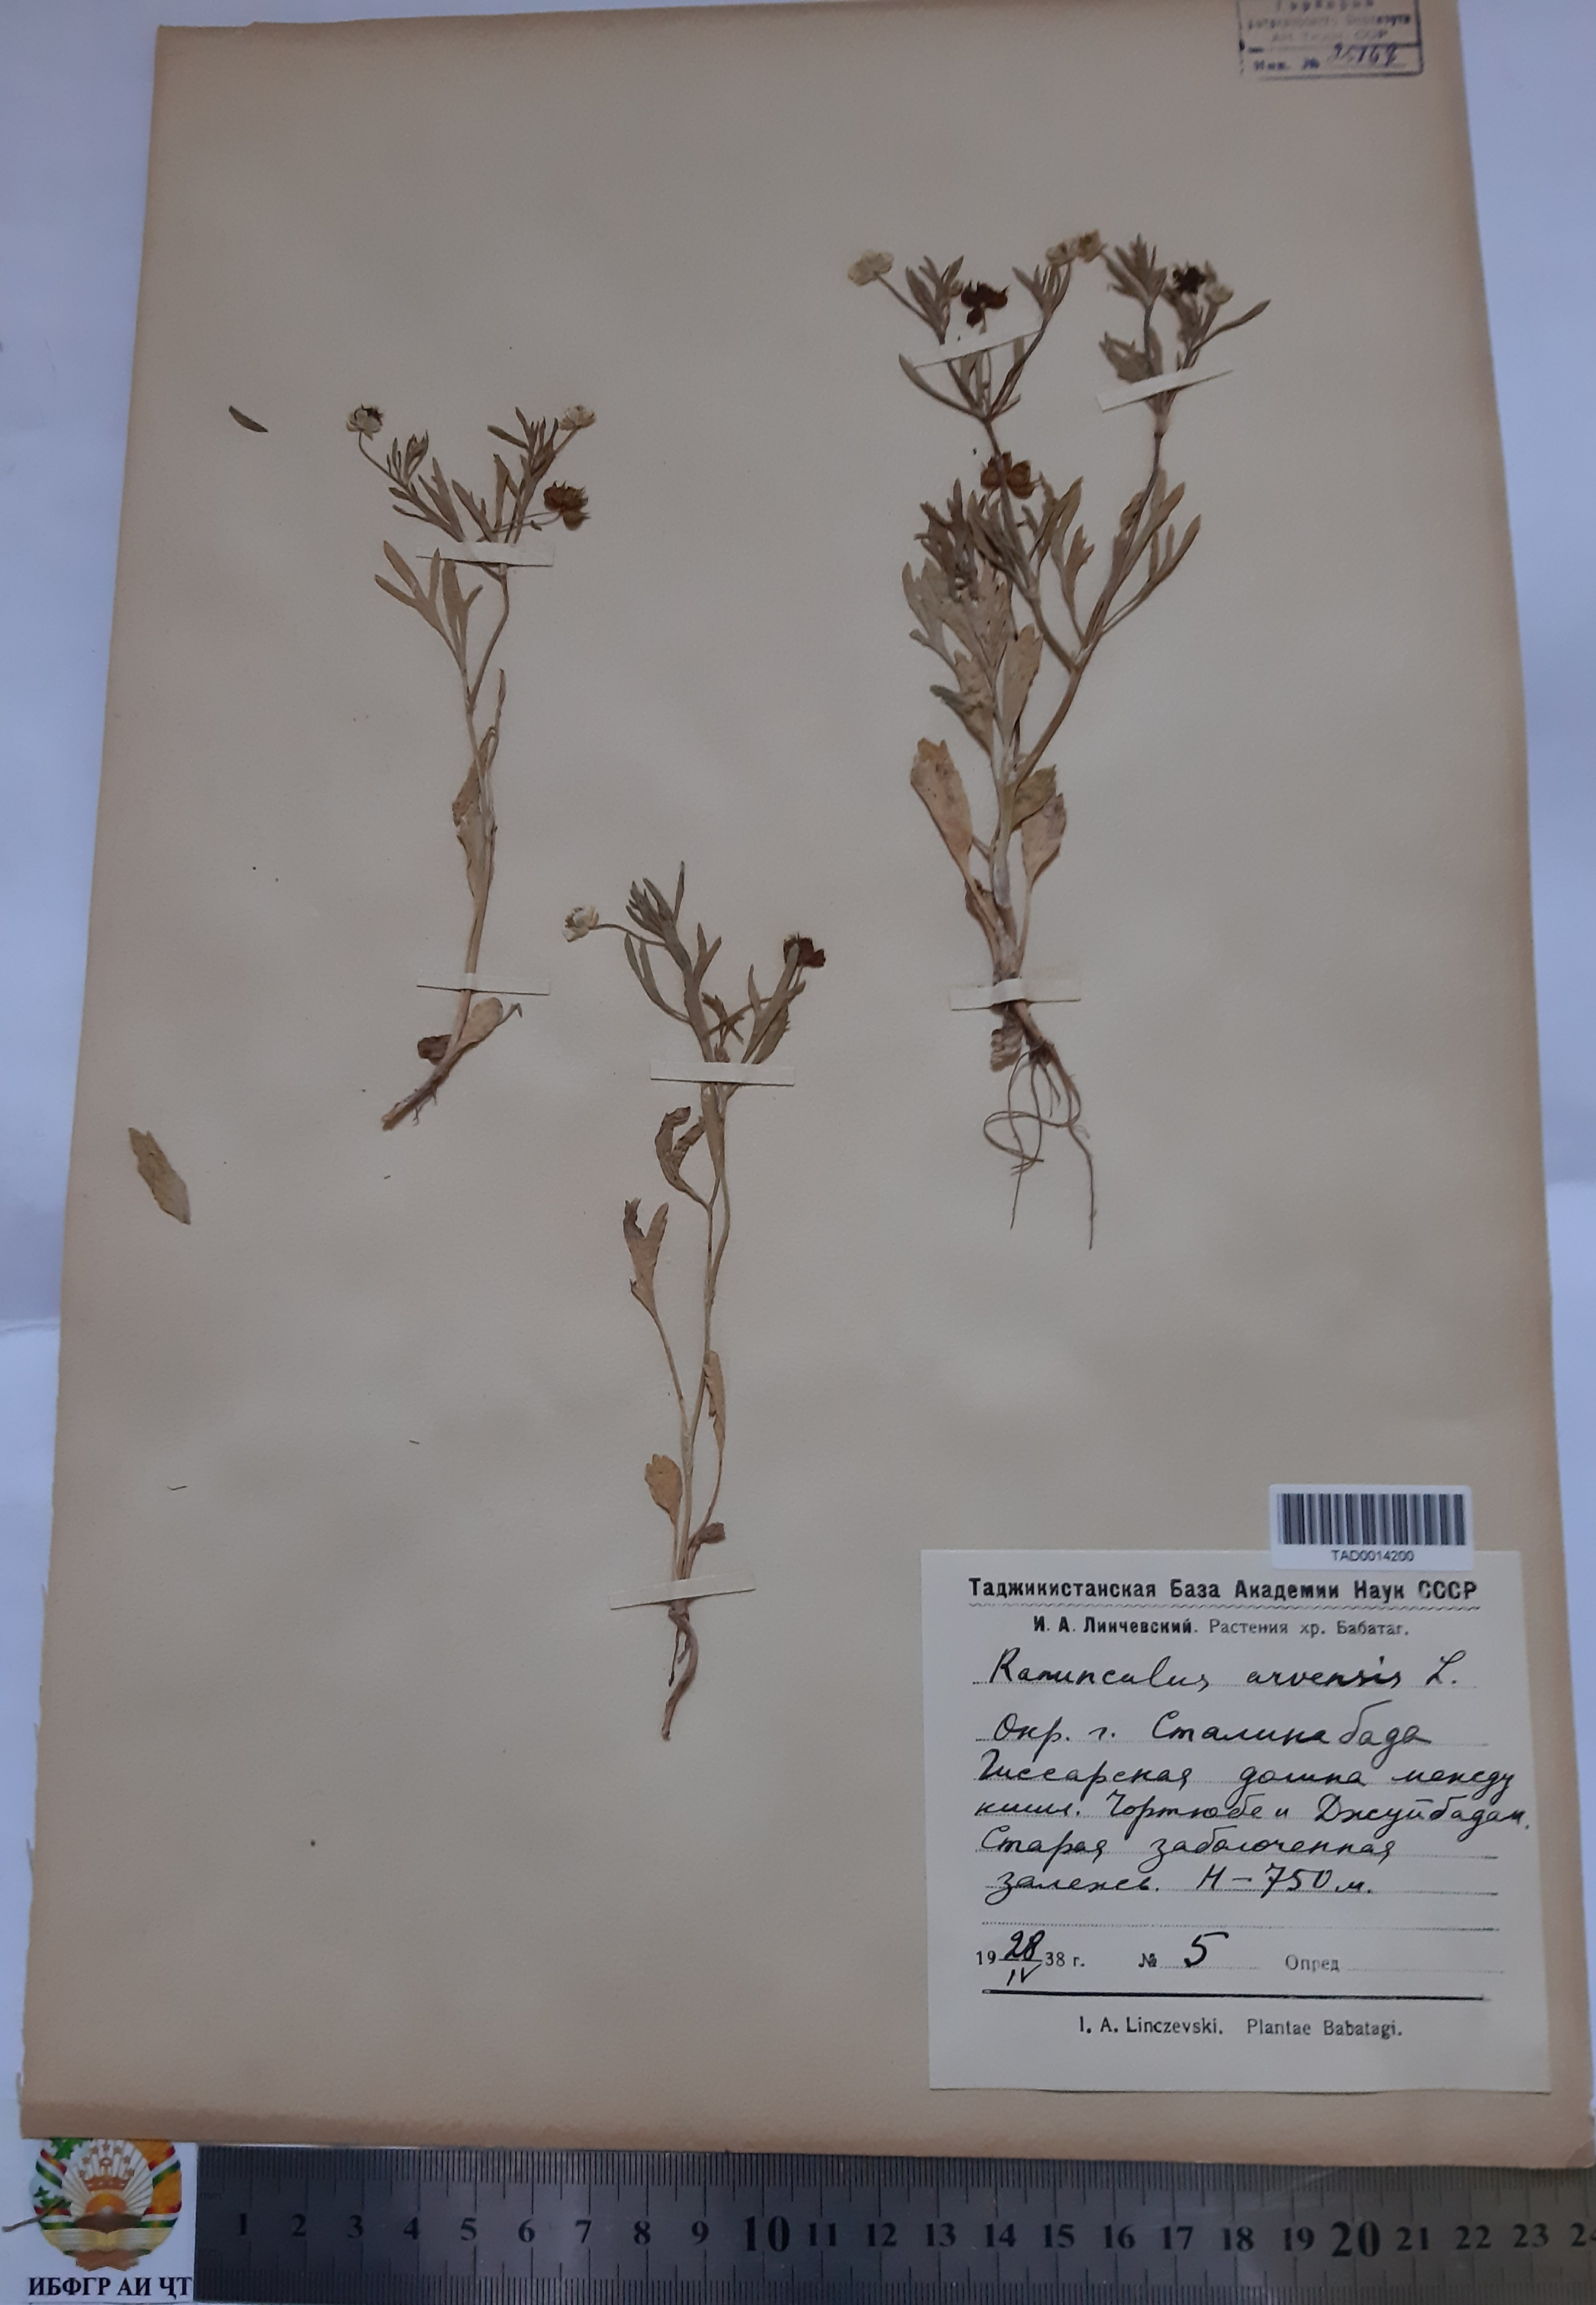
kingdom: Plantae
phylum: Tracheophyta
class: Magnoliopsida
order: Ranunculales
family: Ranunculaceae
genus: Ranunculus
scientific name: Ranunculus arvensis
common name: Corn buttercup
